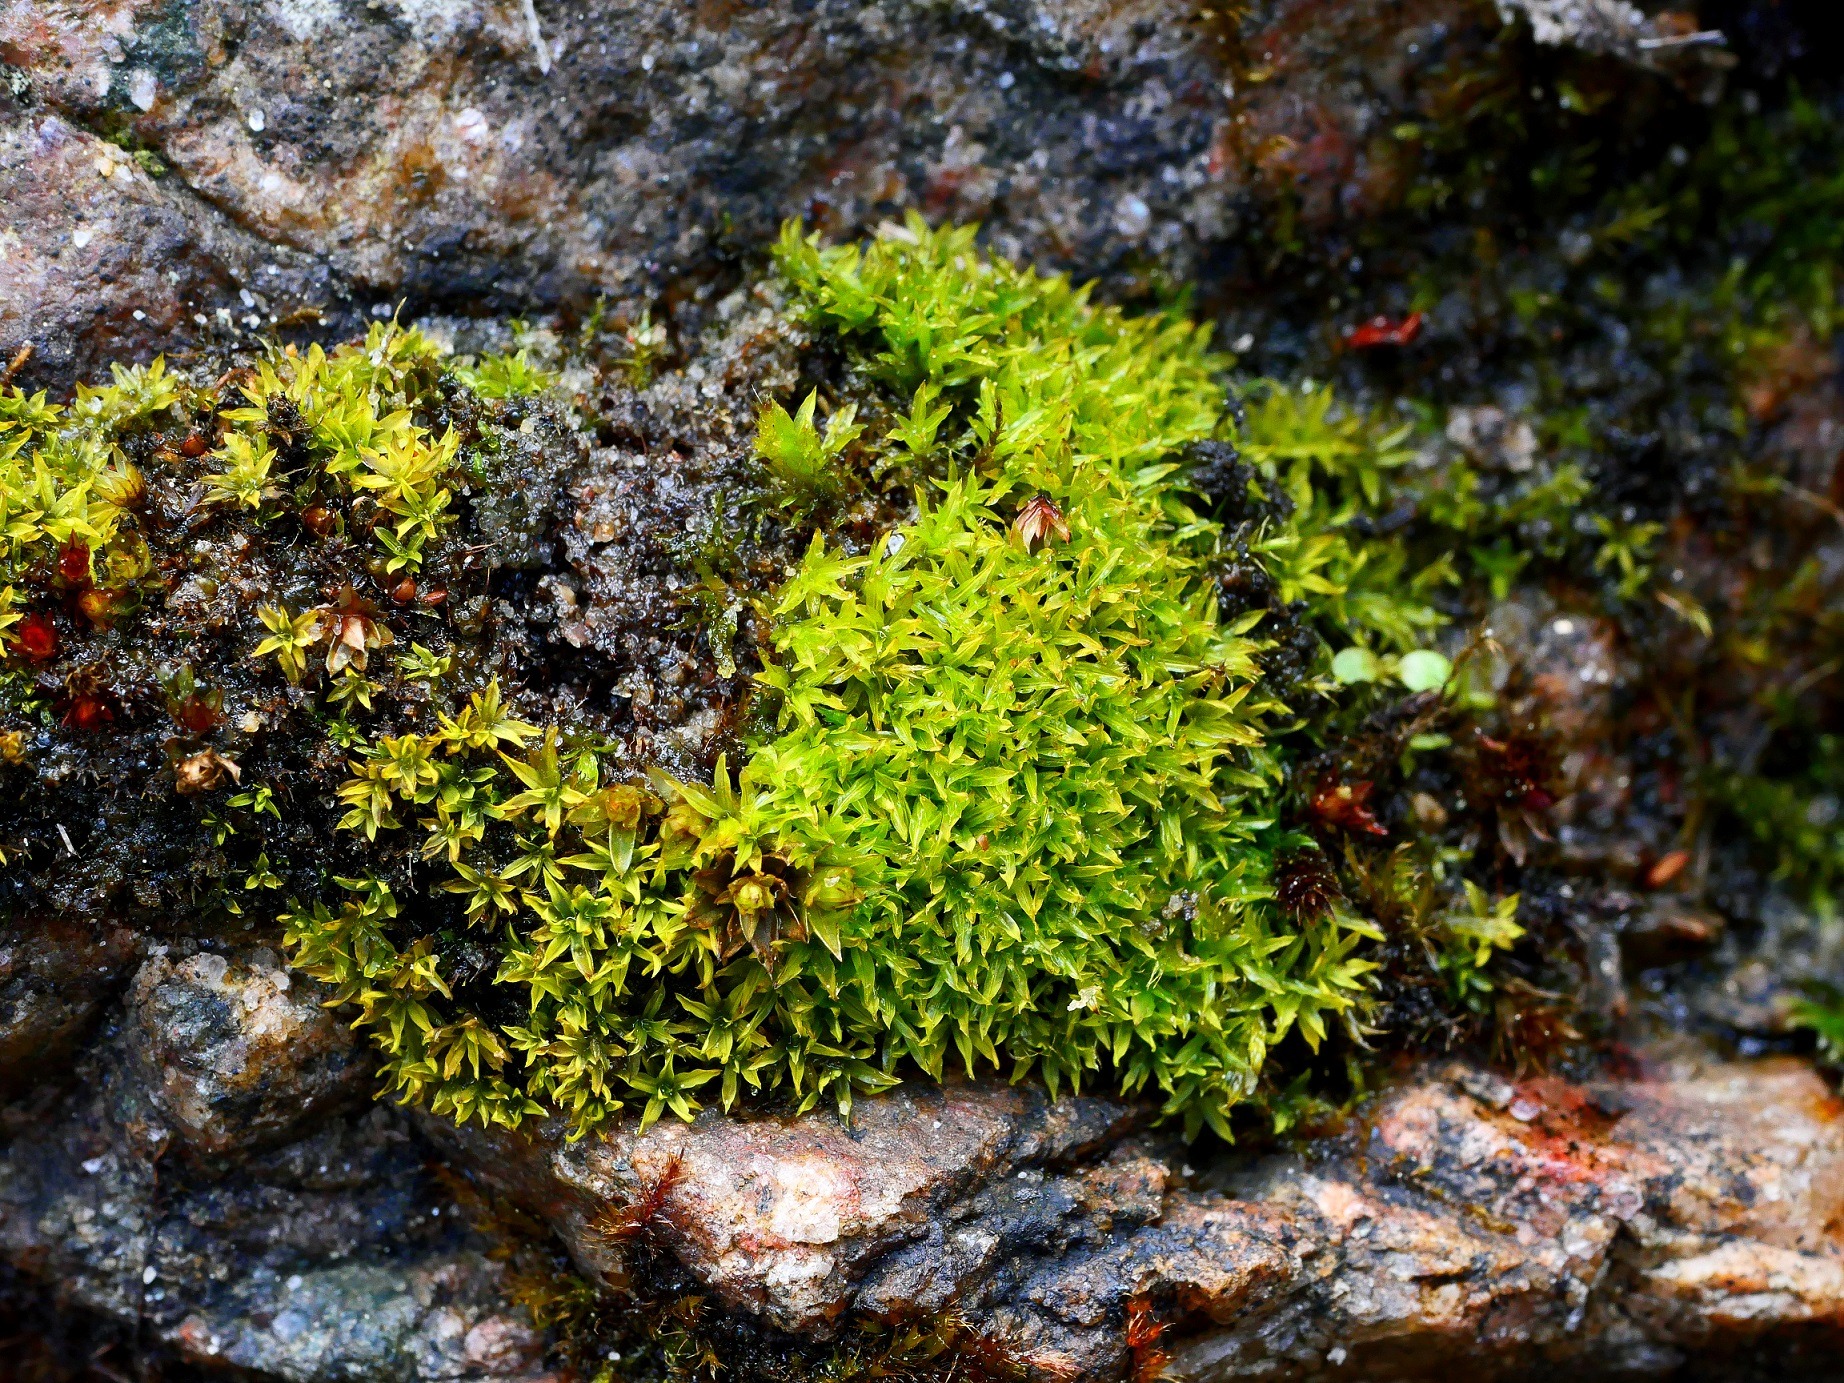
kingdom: Plantae
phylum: Bryophyta
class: Bryopsida
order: Pottiales
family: Pottiaceae
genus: Trichostomum
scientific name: Trichostomum brachydontium
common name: Kyst-hårmund
